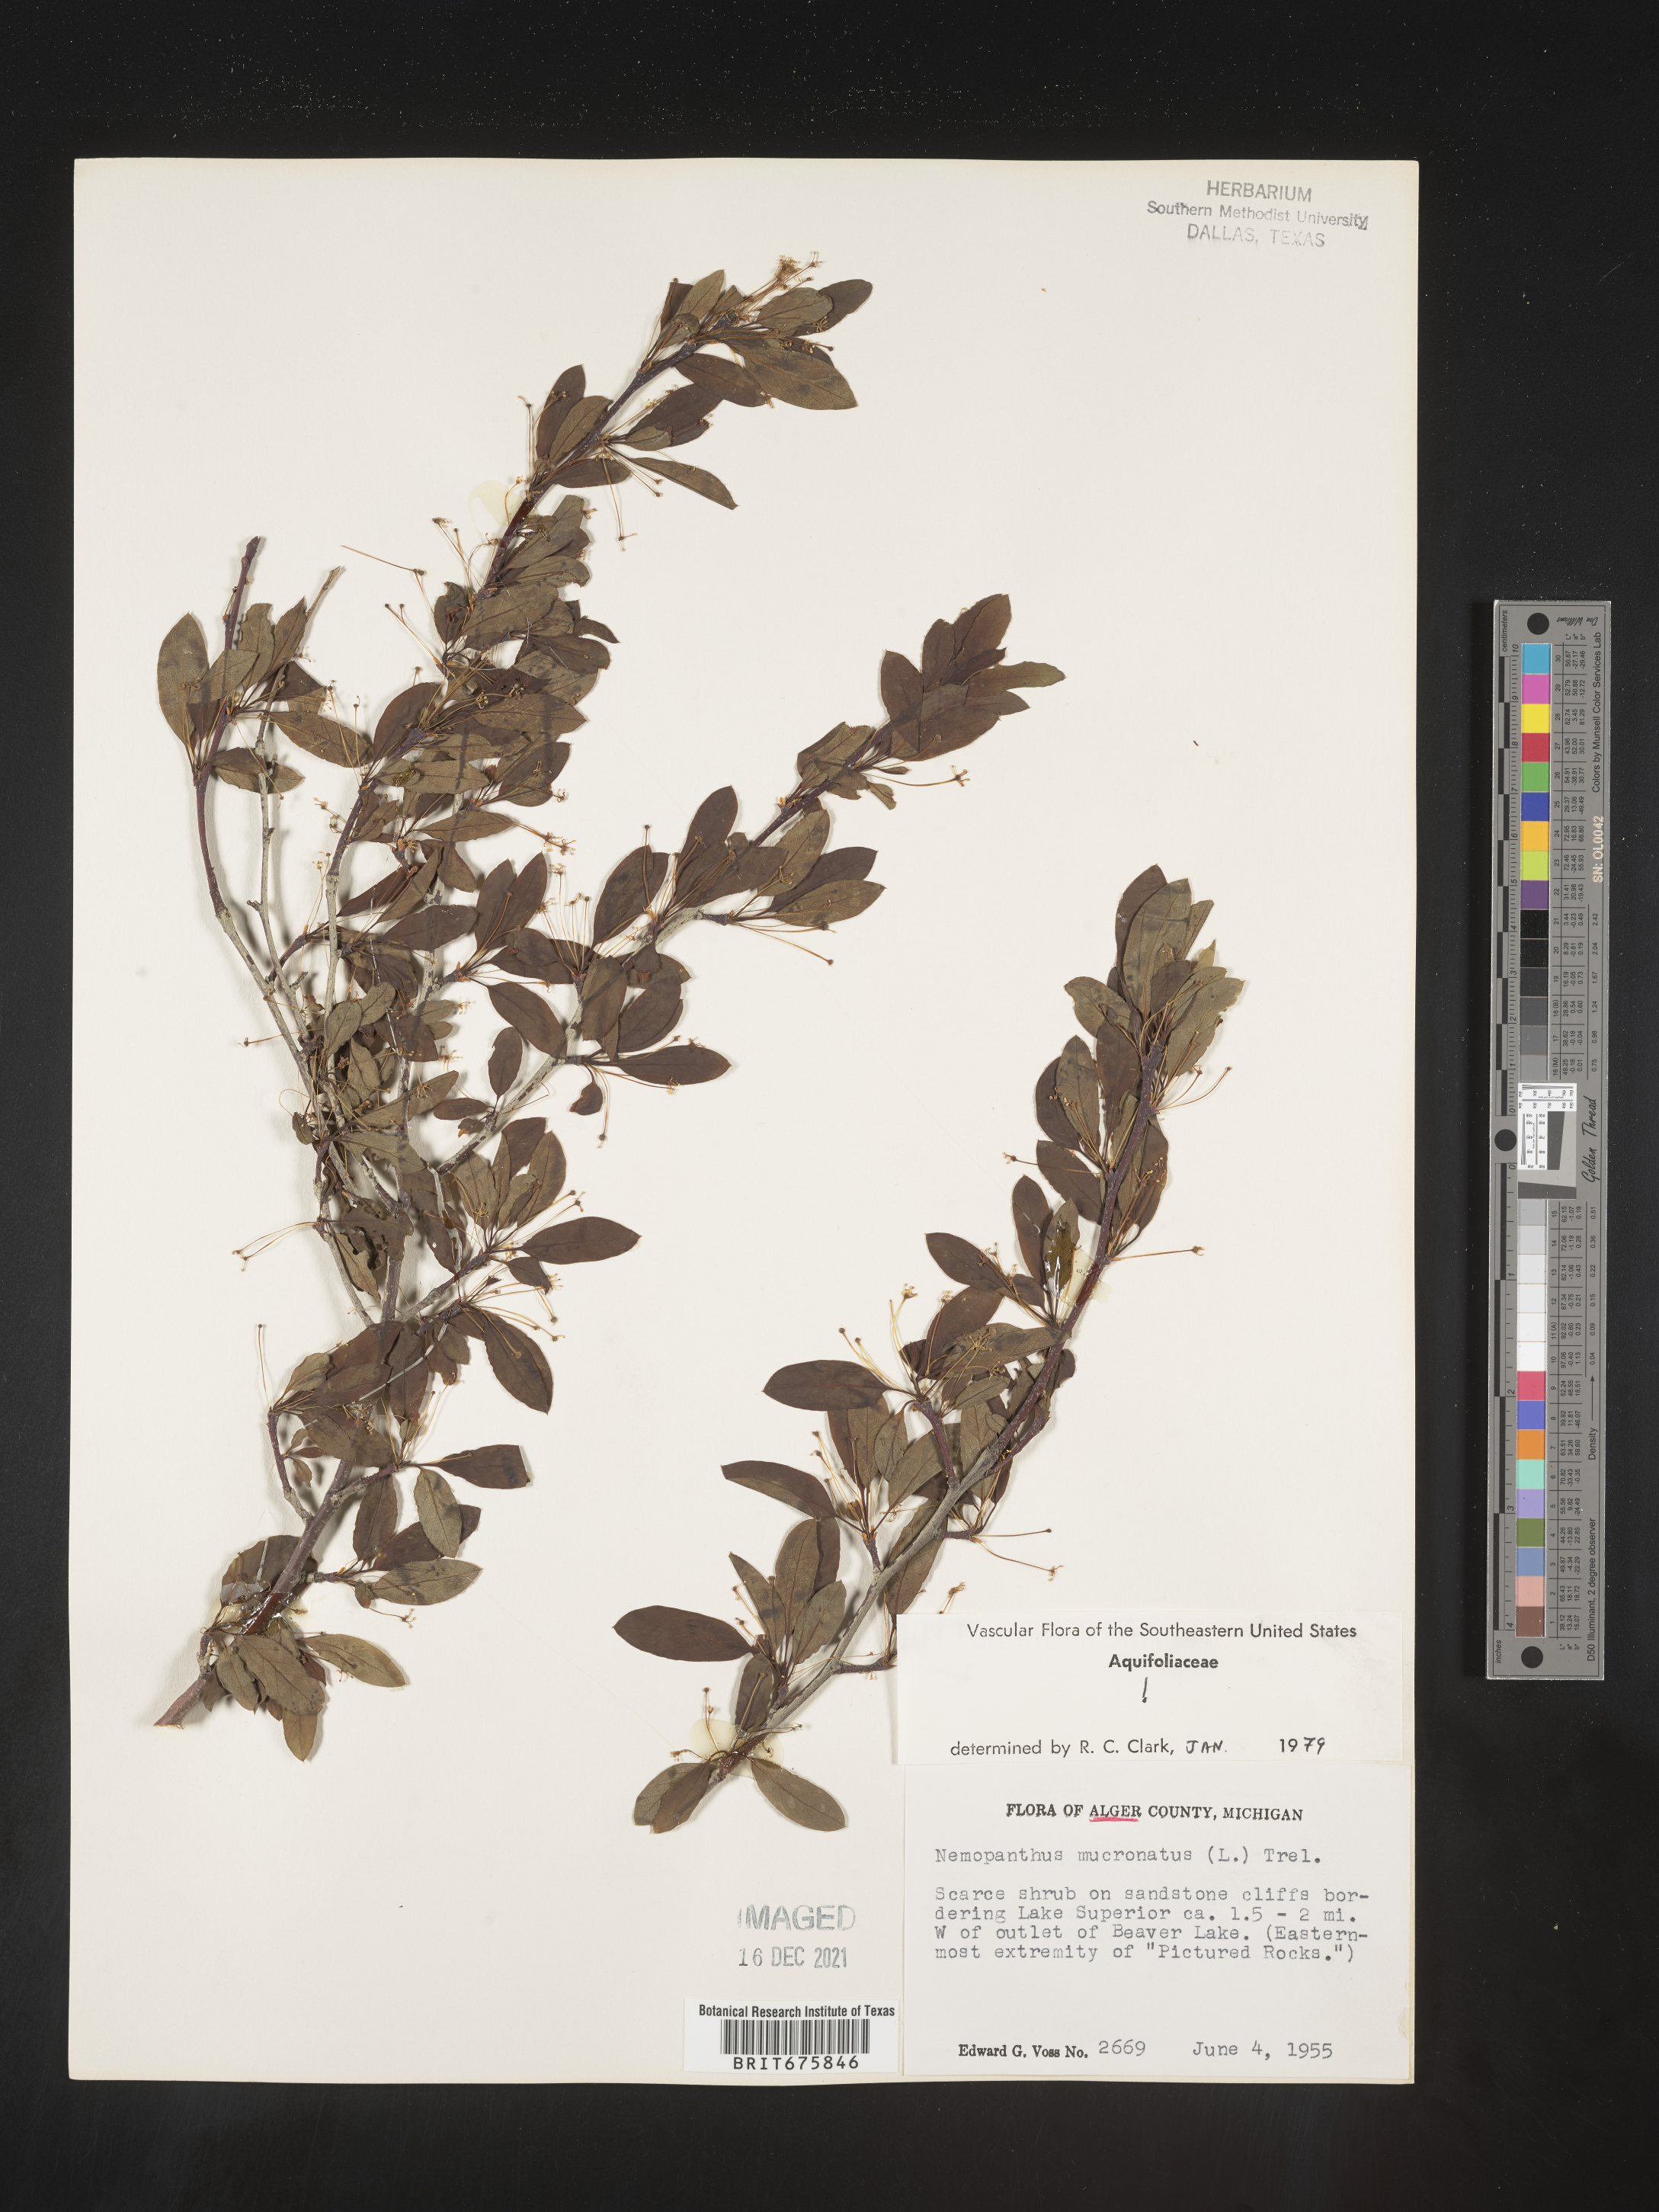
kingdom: Plantae
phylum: Tracheophyta
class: Magnoliopsida
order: Aquifoliales
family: Aquifoliaceae
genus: Ilex
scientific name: Ilex mucronata
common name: Catberry
